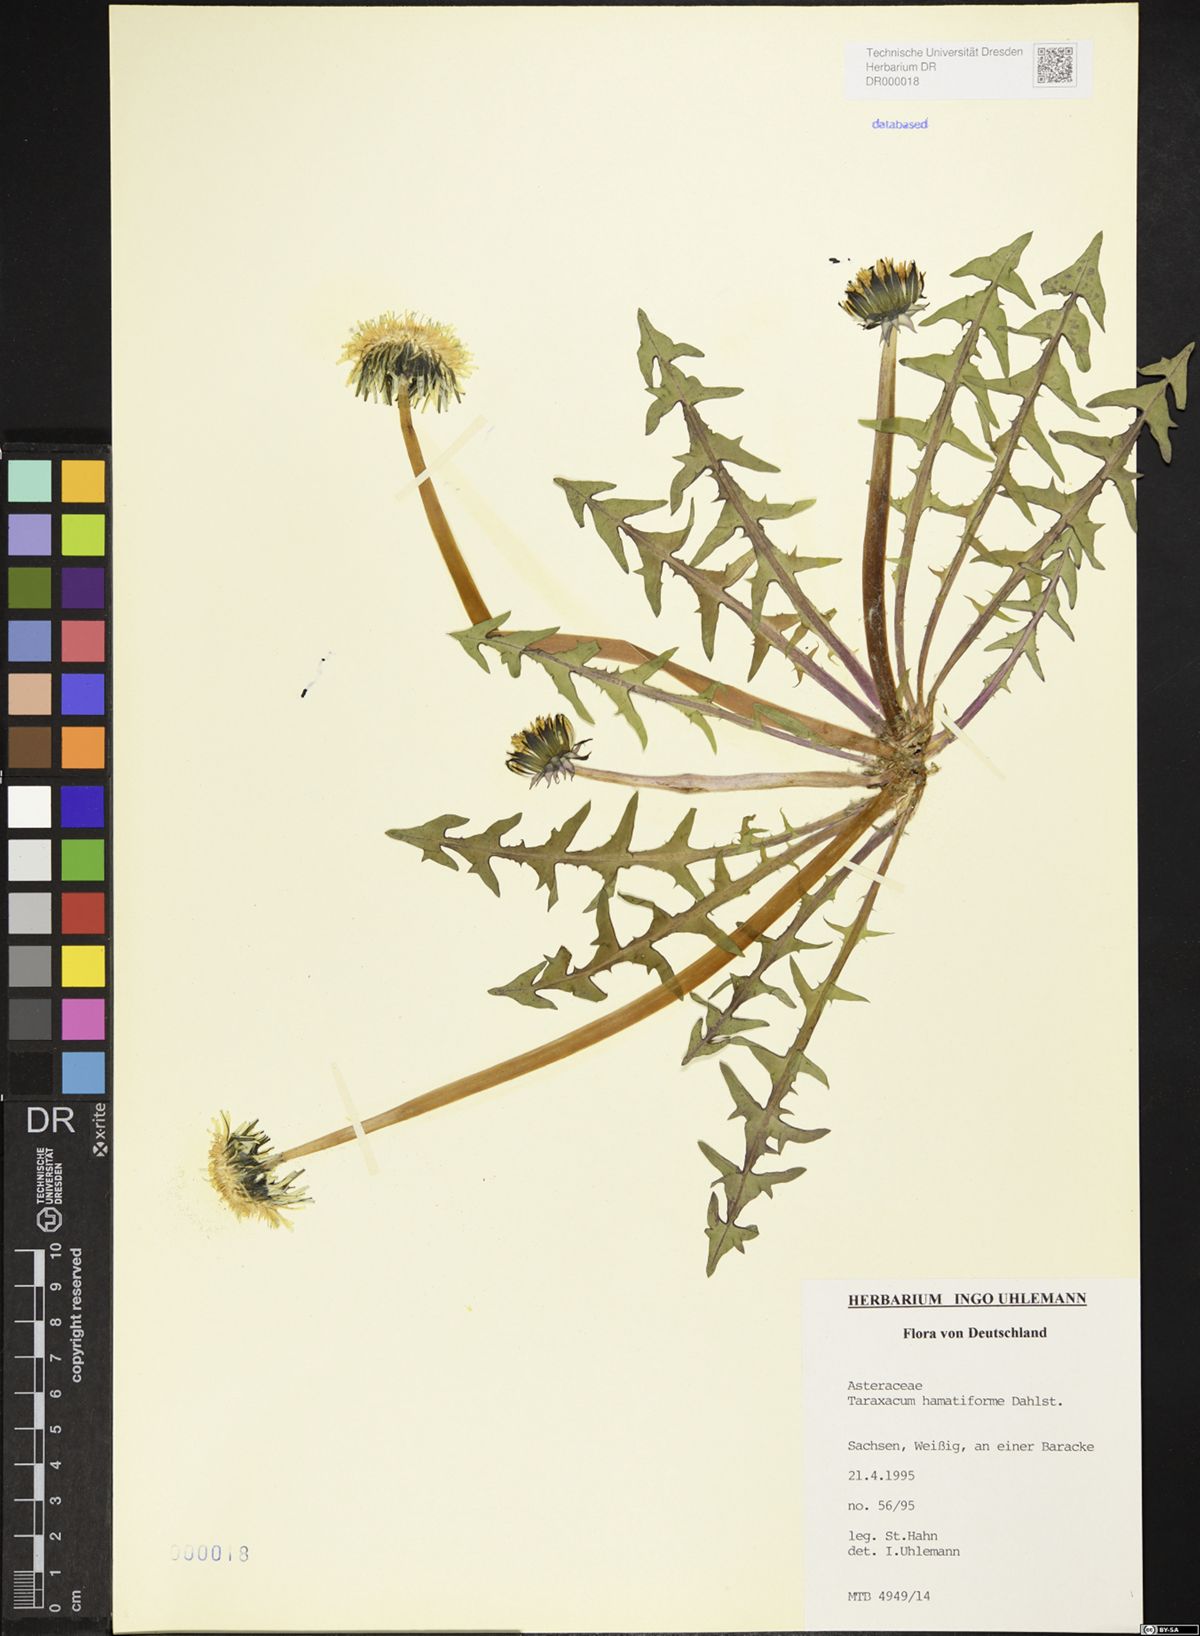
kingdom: Plantae
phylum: Tracheophyta
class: Magnoliopsida
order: Asterales
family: Asteraceae
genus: Taraxacum
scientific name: Taraxacum hamatiforme
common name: Asymmetrical hook-lobed dandelion
